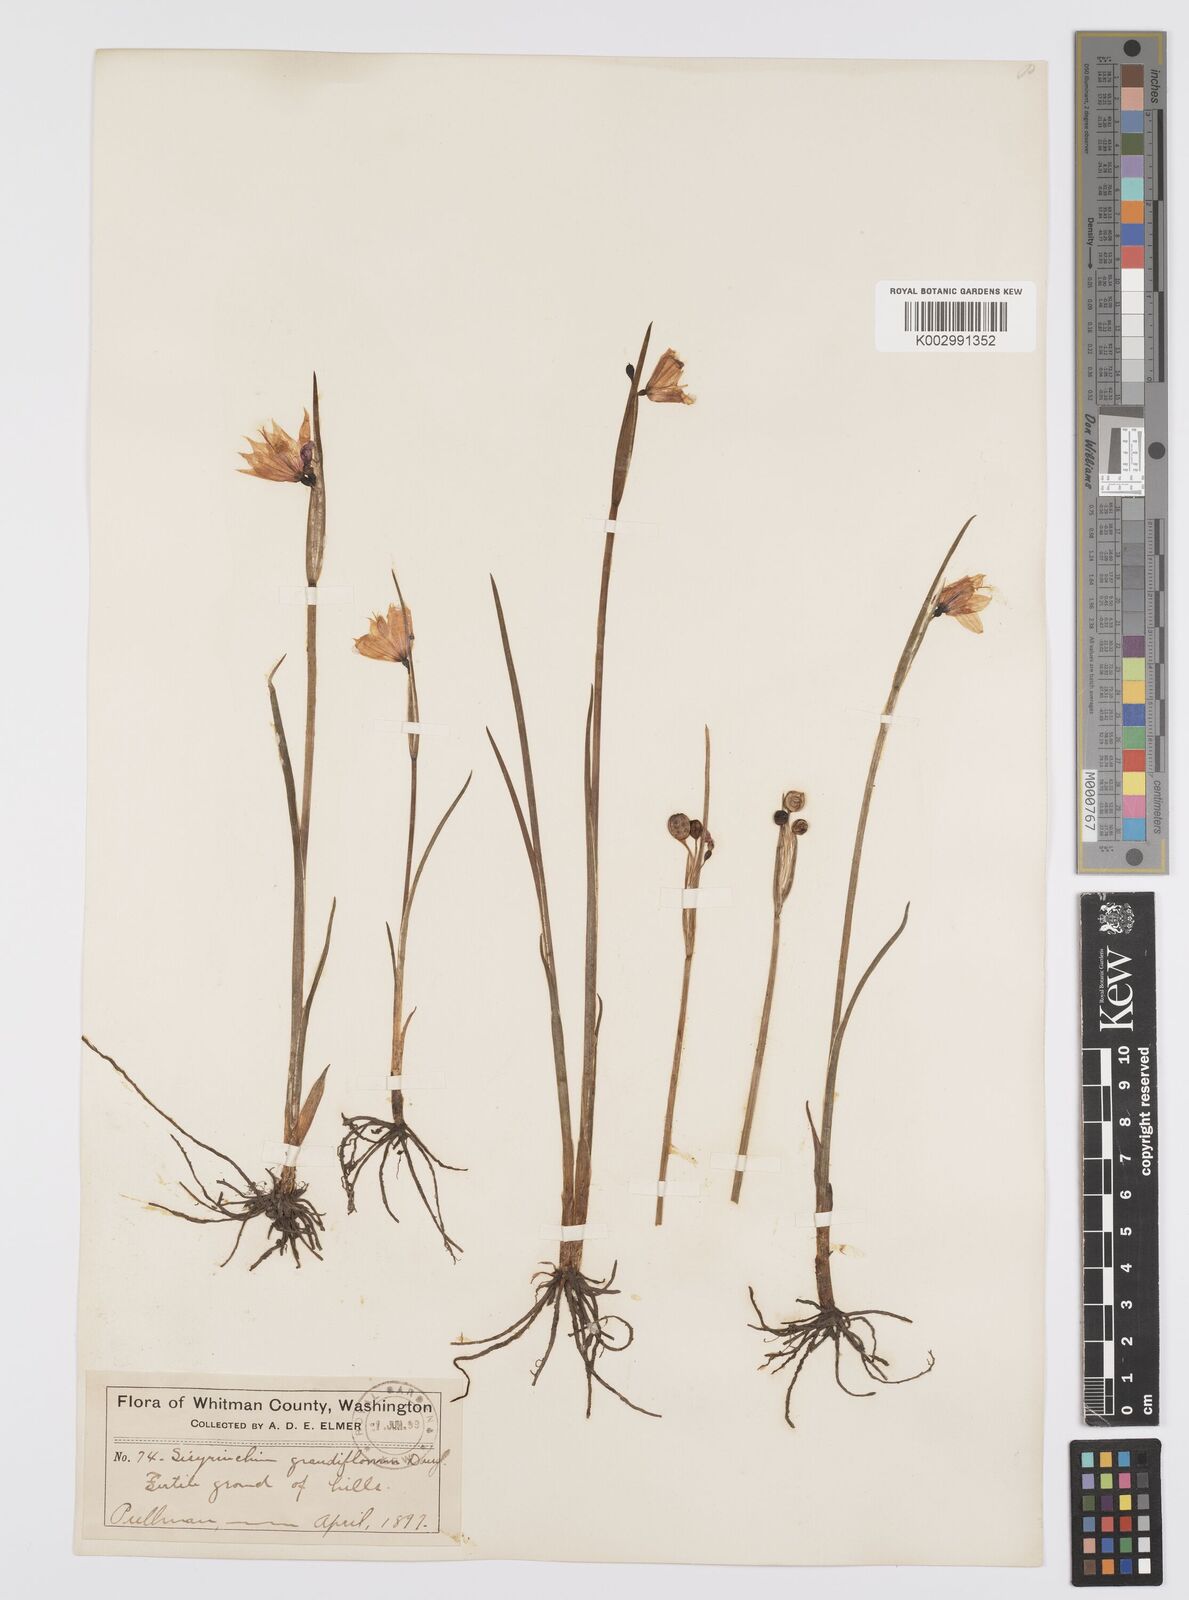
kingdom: Plantae
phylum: Tracheophyta
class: Liliopsida
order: Asparagales
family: Iridaceae
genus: Olsynium
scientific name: Olsynium douglasii
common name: Douglas' grasswidow
